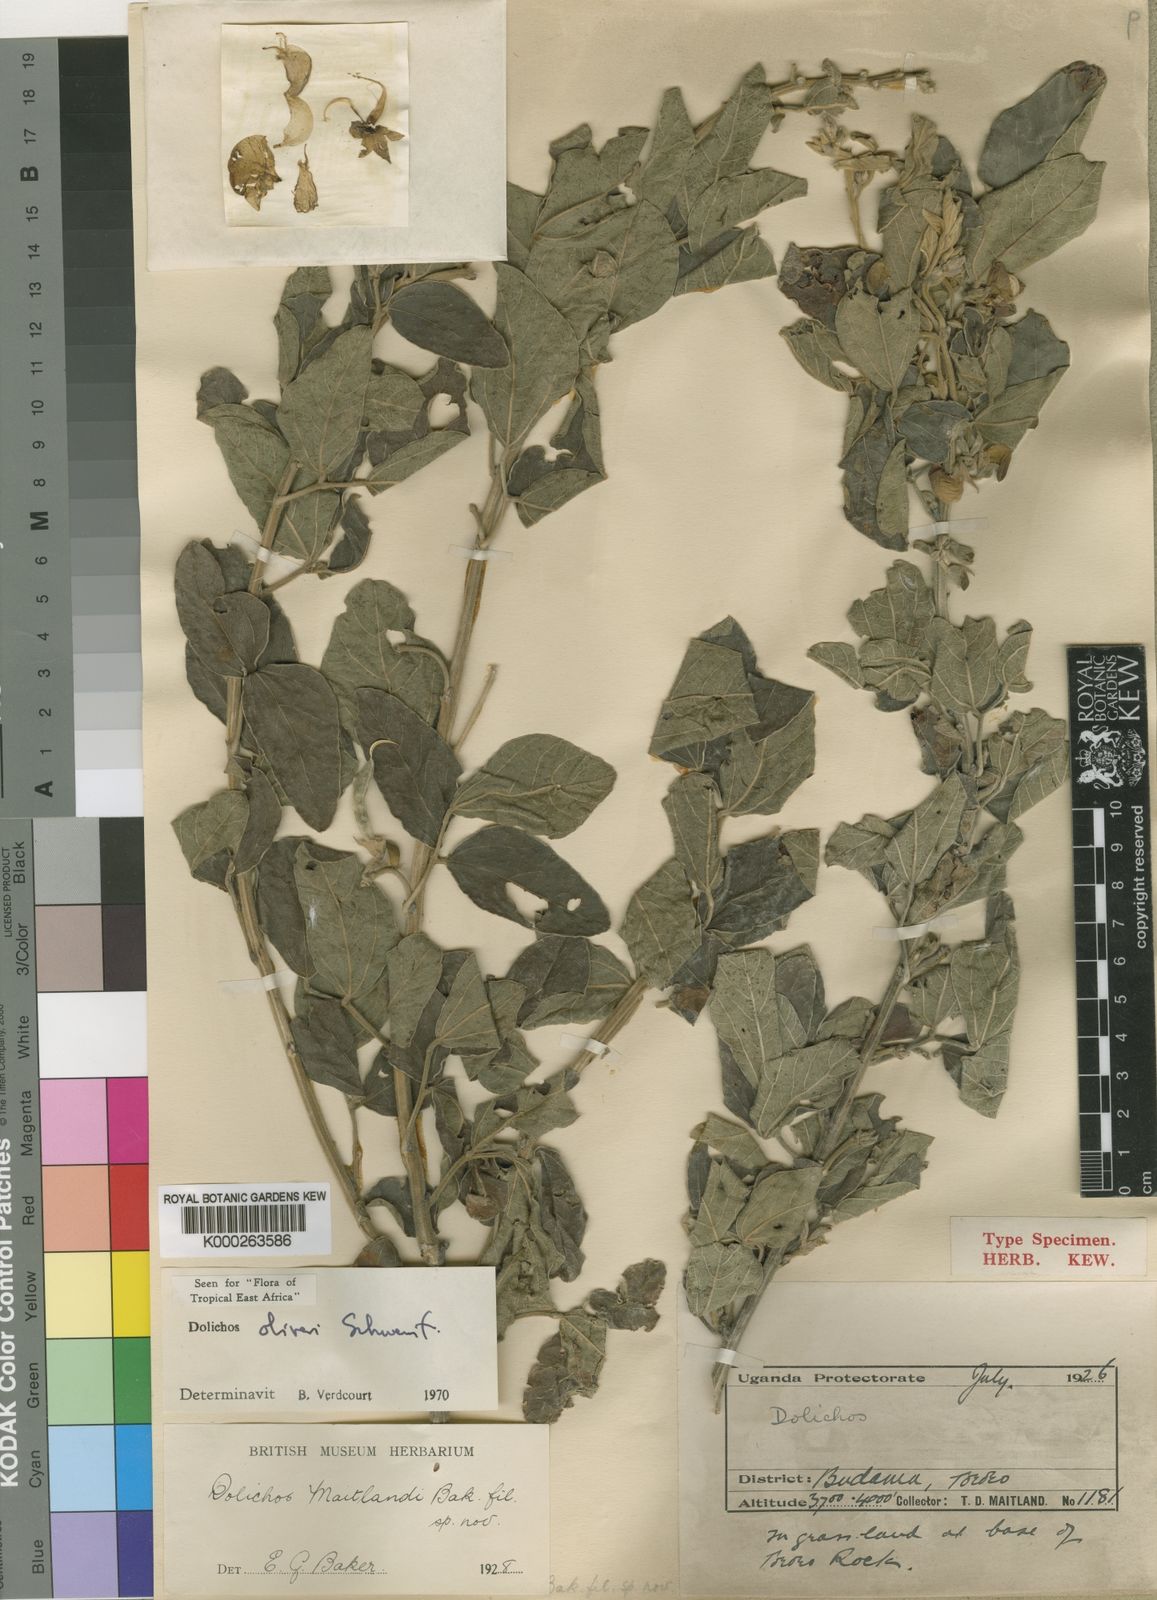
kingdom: Plantae
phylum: Tracheophyta
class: Magnoliopsida
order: Fabales
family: Fabaceae
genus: Dolichos
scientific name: Dolichos
